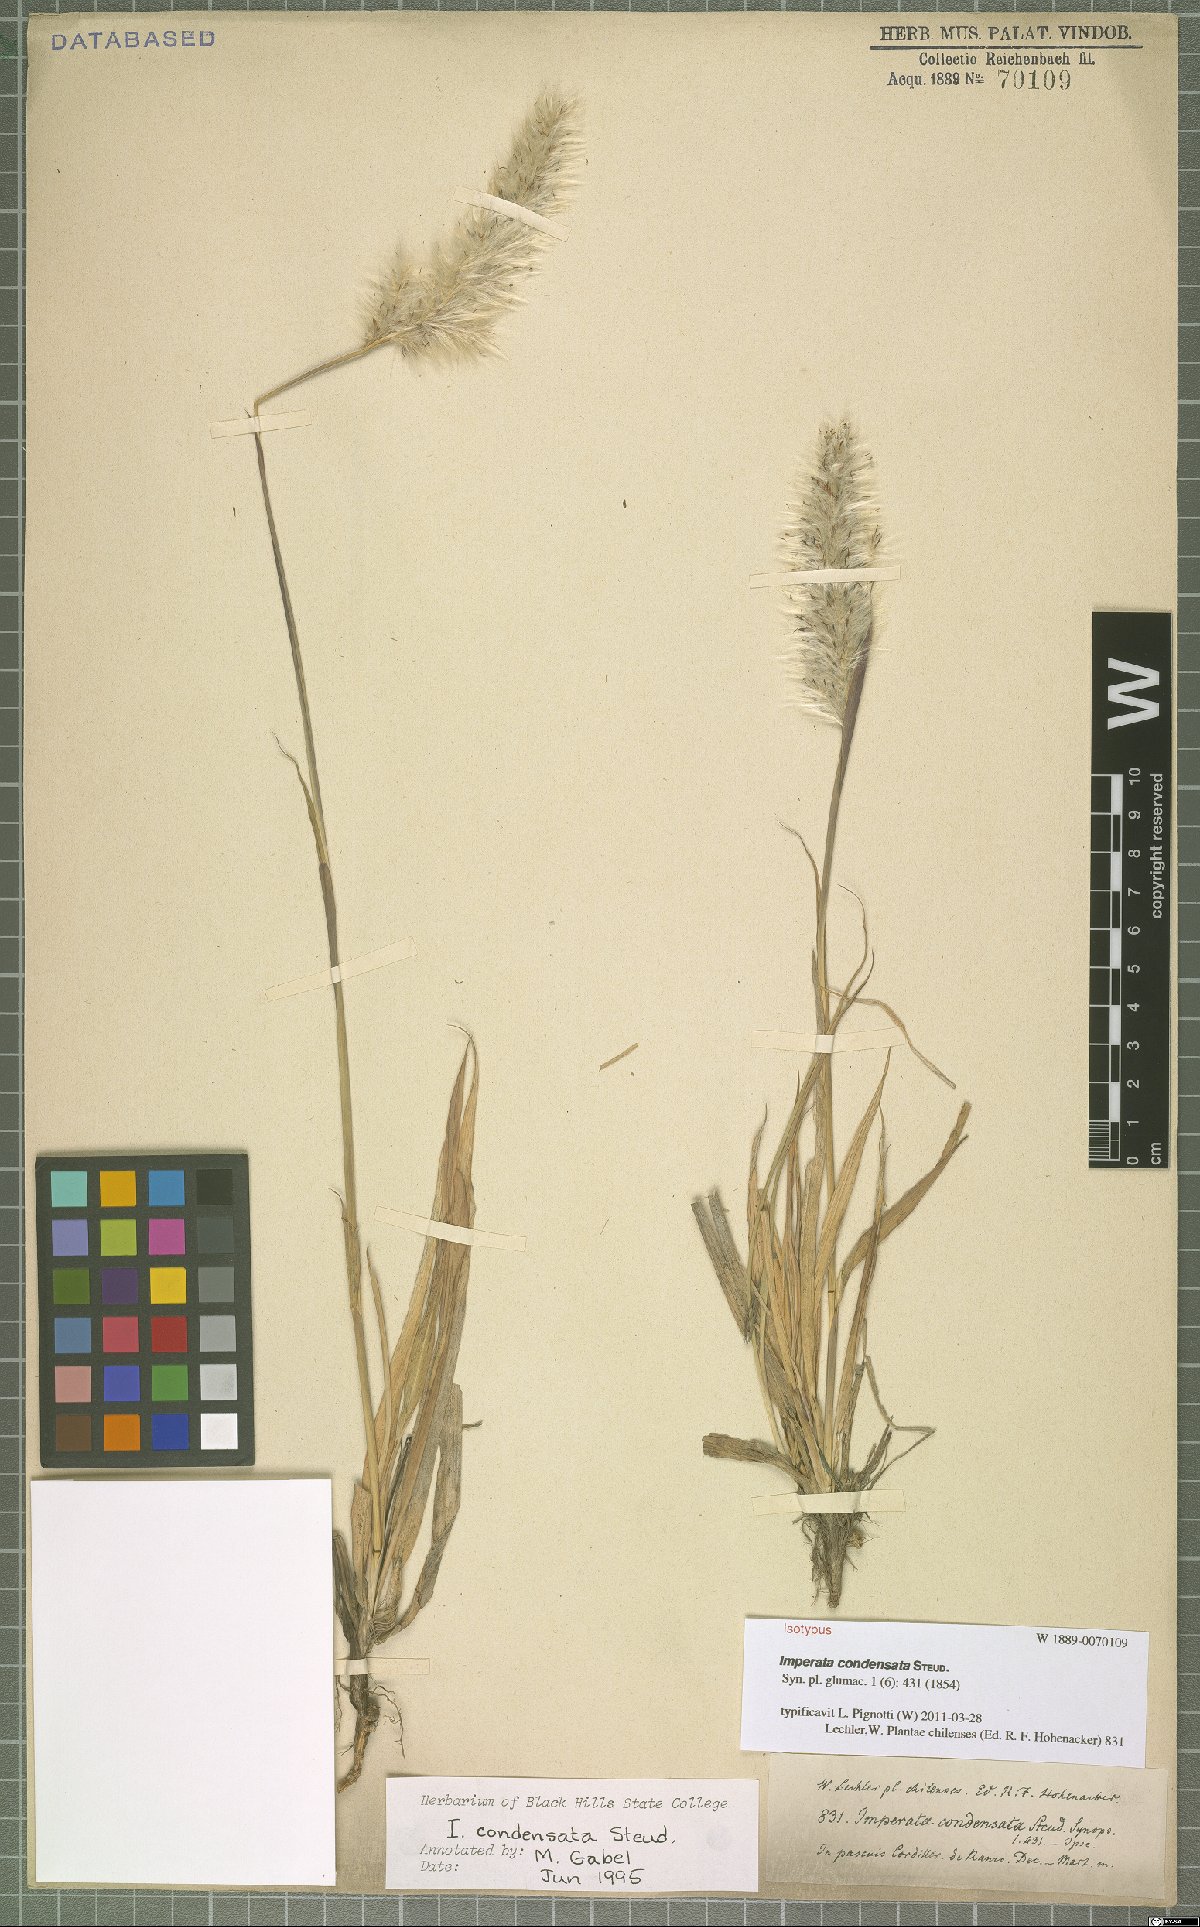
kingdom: Plantae
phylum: Tracheophyta
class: Liliopsida
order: Poales
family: Poaceae
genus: Imperata
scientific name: Imperata condensata
